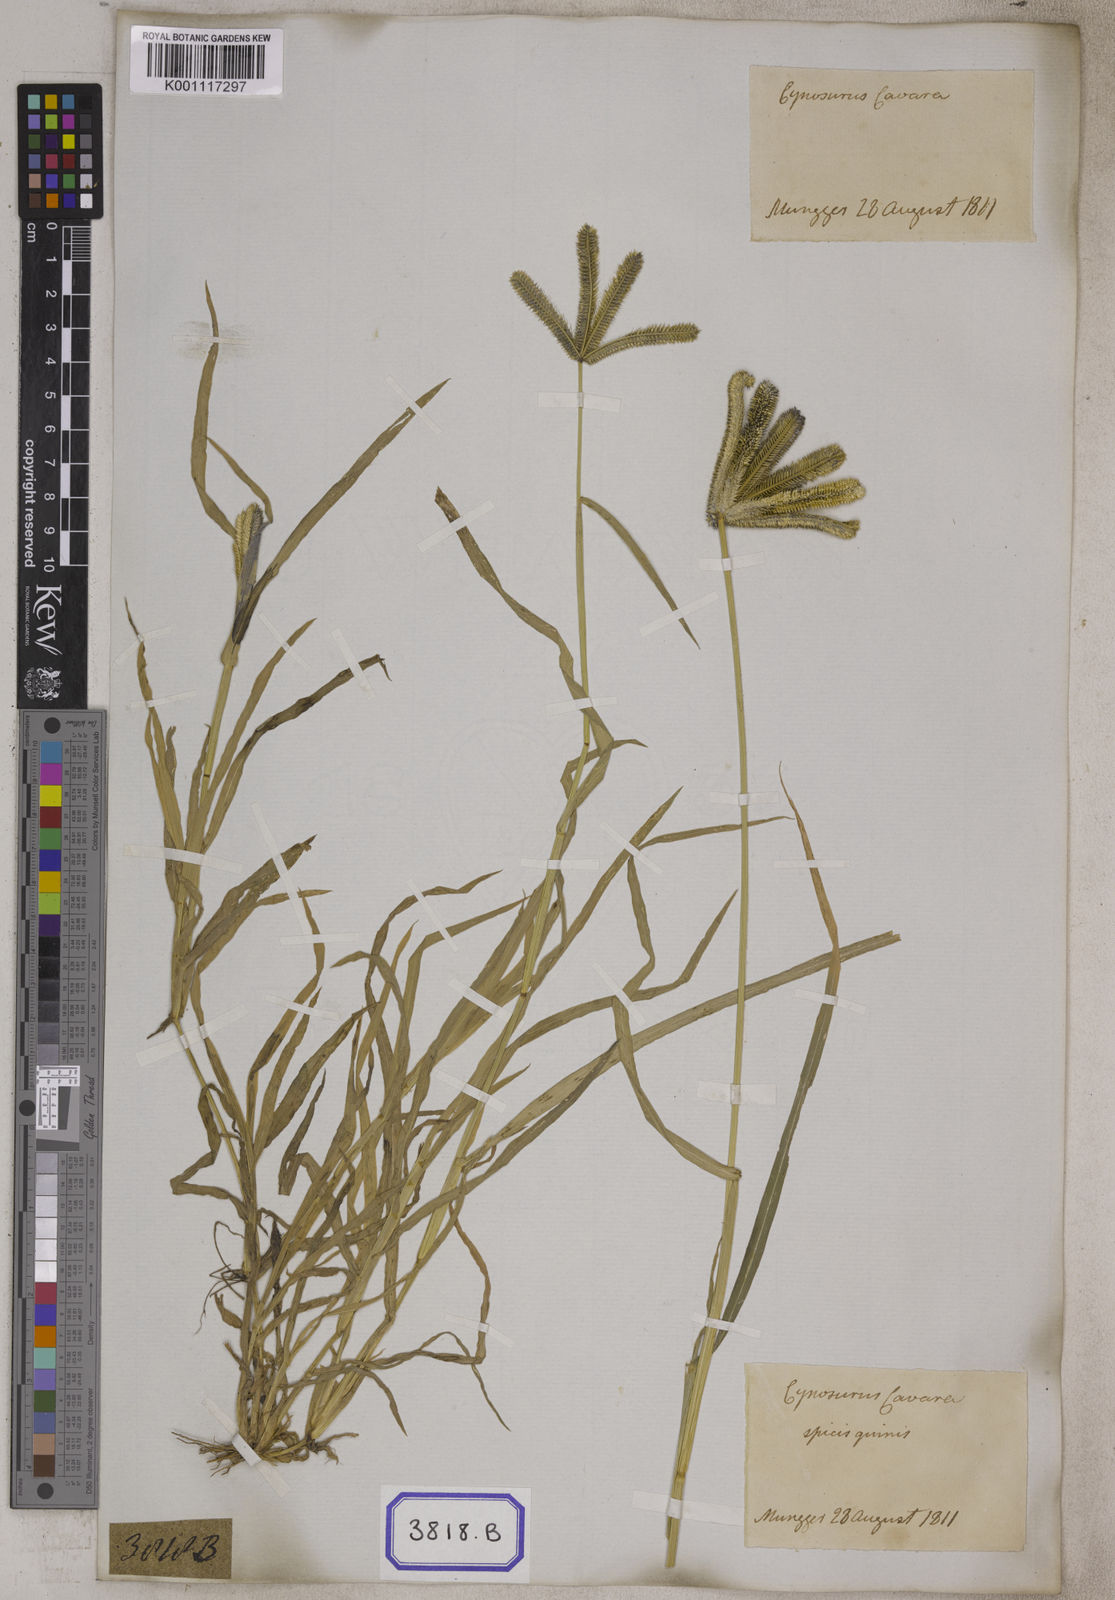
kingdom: Plantae
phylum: Tracheophyta
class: Liliopsida
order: Poales
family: Poaceae
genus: Eleusine
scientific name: Eleusine
